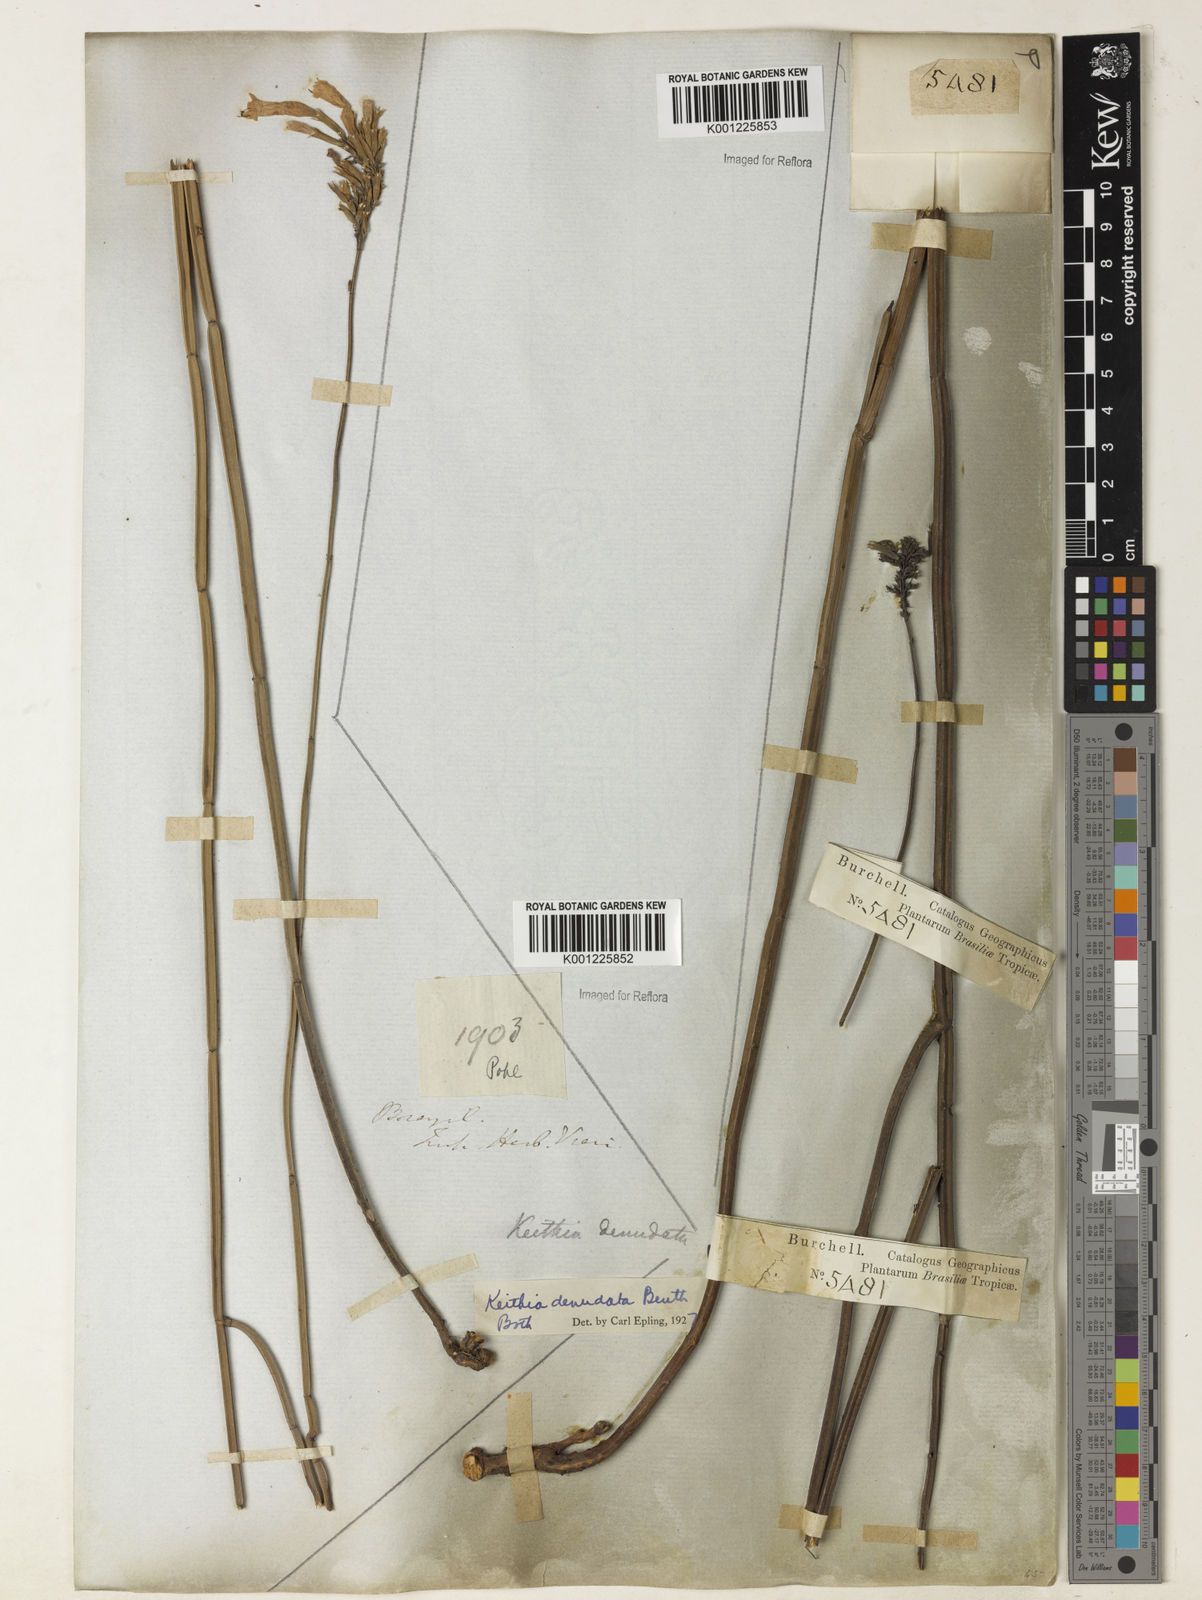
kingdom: Plantae
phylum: Tracheophyta
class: Magnoliopsida
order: Lamiales
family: Lamiaceae
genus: Rhabdocaulon
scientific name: Rhabdocaulon denudatum
